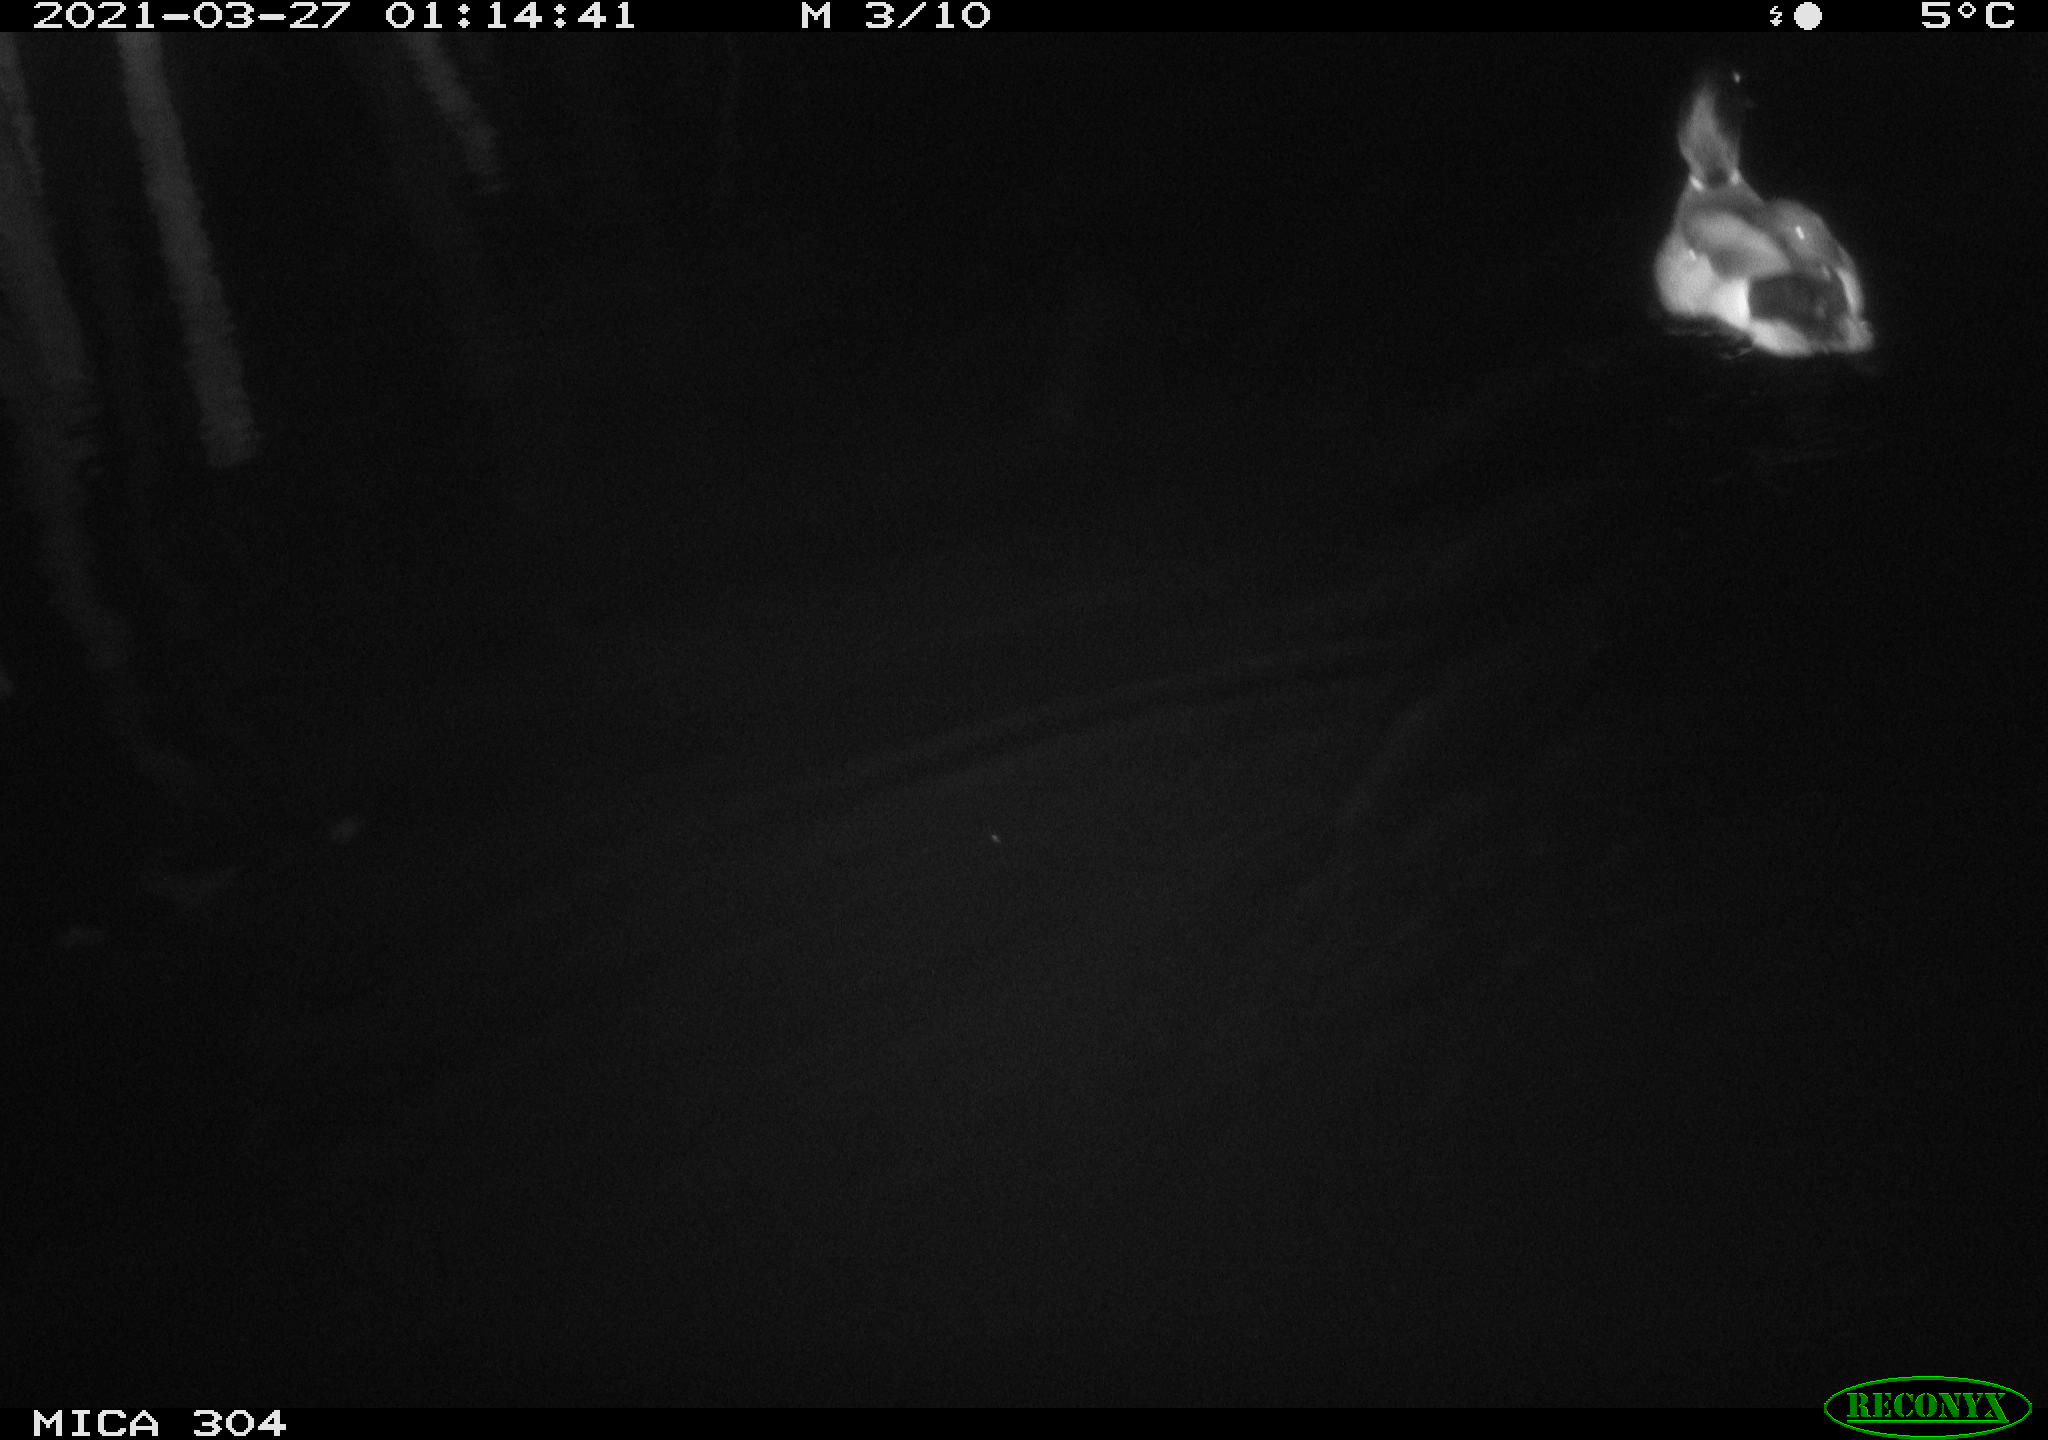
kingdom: Animalia
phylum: Chordata
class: Aves
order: Anseriformes
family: Anatidae
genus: Anas
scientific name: Anas platyrhynchos
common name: Mallard
